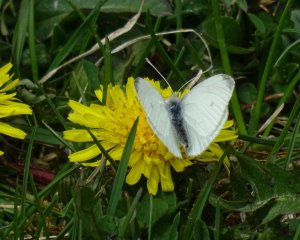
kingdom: Animalia
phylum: Arthropoda
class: Insecta
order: Lepidoptera
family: Pieridae
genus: Pieris
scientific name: Pieris rapae
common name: Cabbage White
